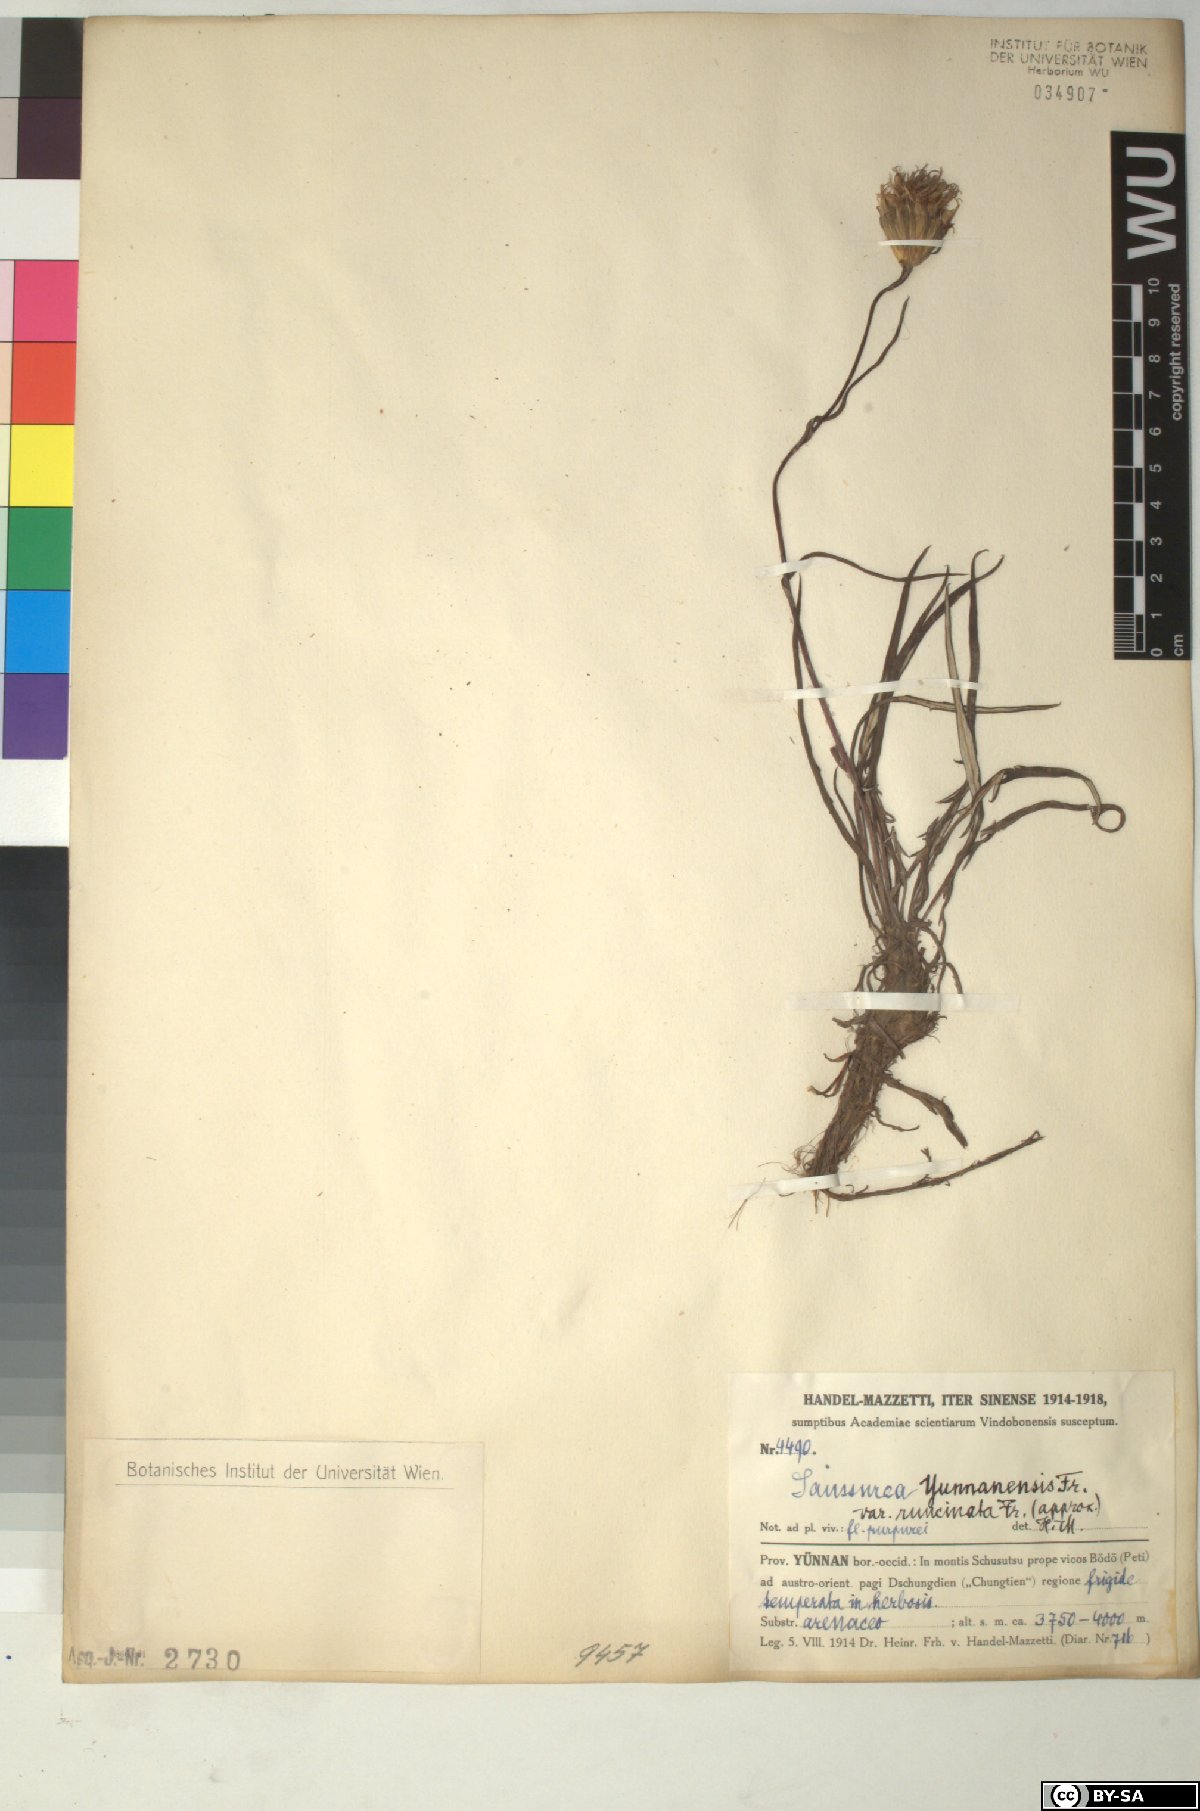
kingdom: Plantae
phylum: Tracheophyta
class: Magnoliopsida
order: Asterales
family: Asteraceae
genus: Saussurea
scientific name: Saussurea yunnanensis
